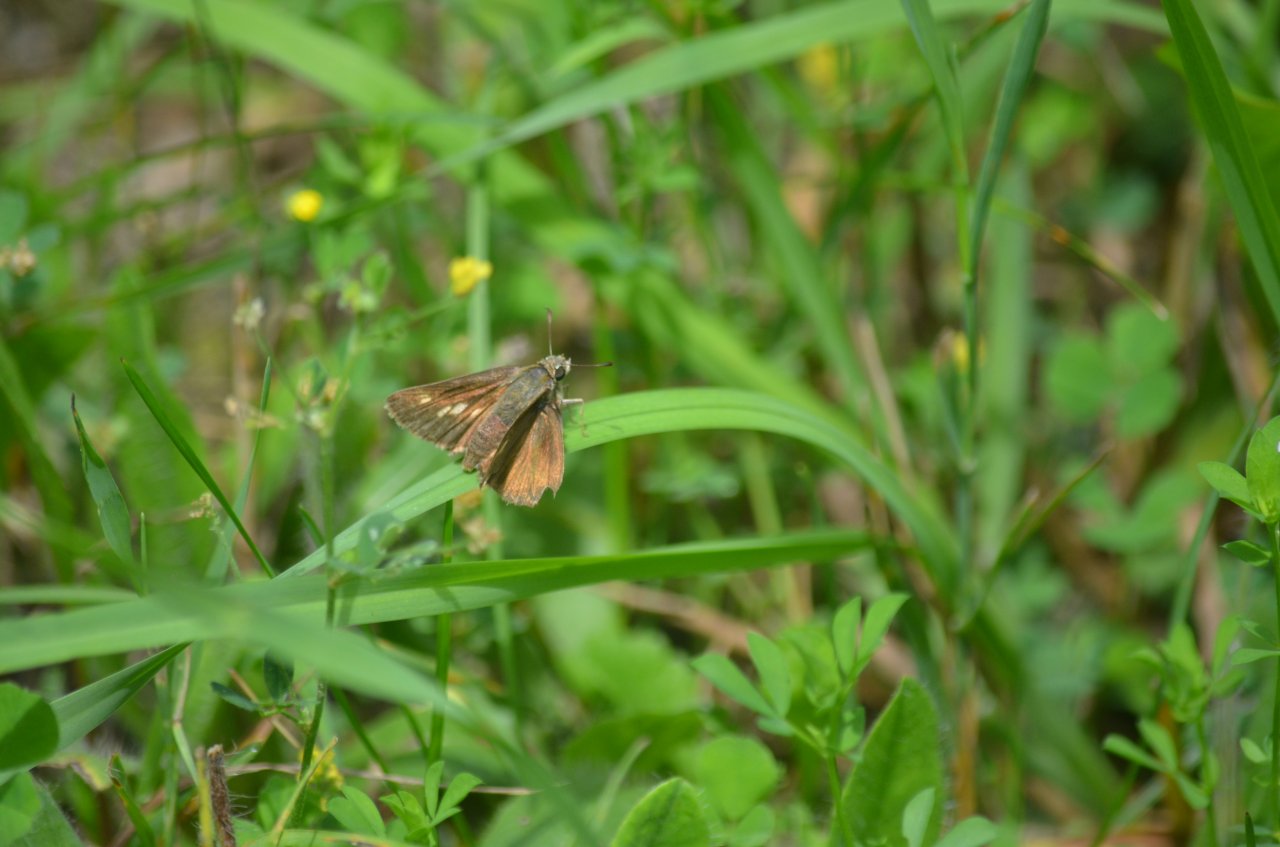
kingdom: Animalia
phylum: Arthropoda
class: Insecta
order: Lepidoptera
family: Hesperiidae
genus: Polites
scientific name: Polites themistocles
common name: Tawny-edged Skipper
